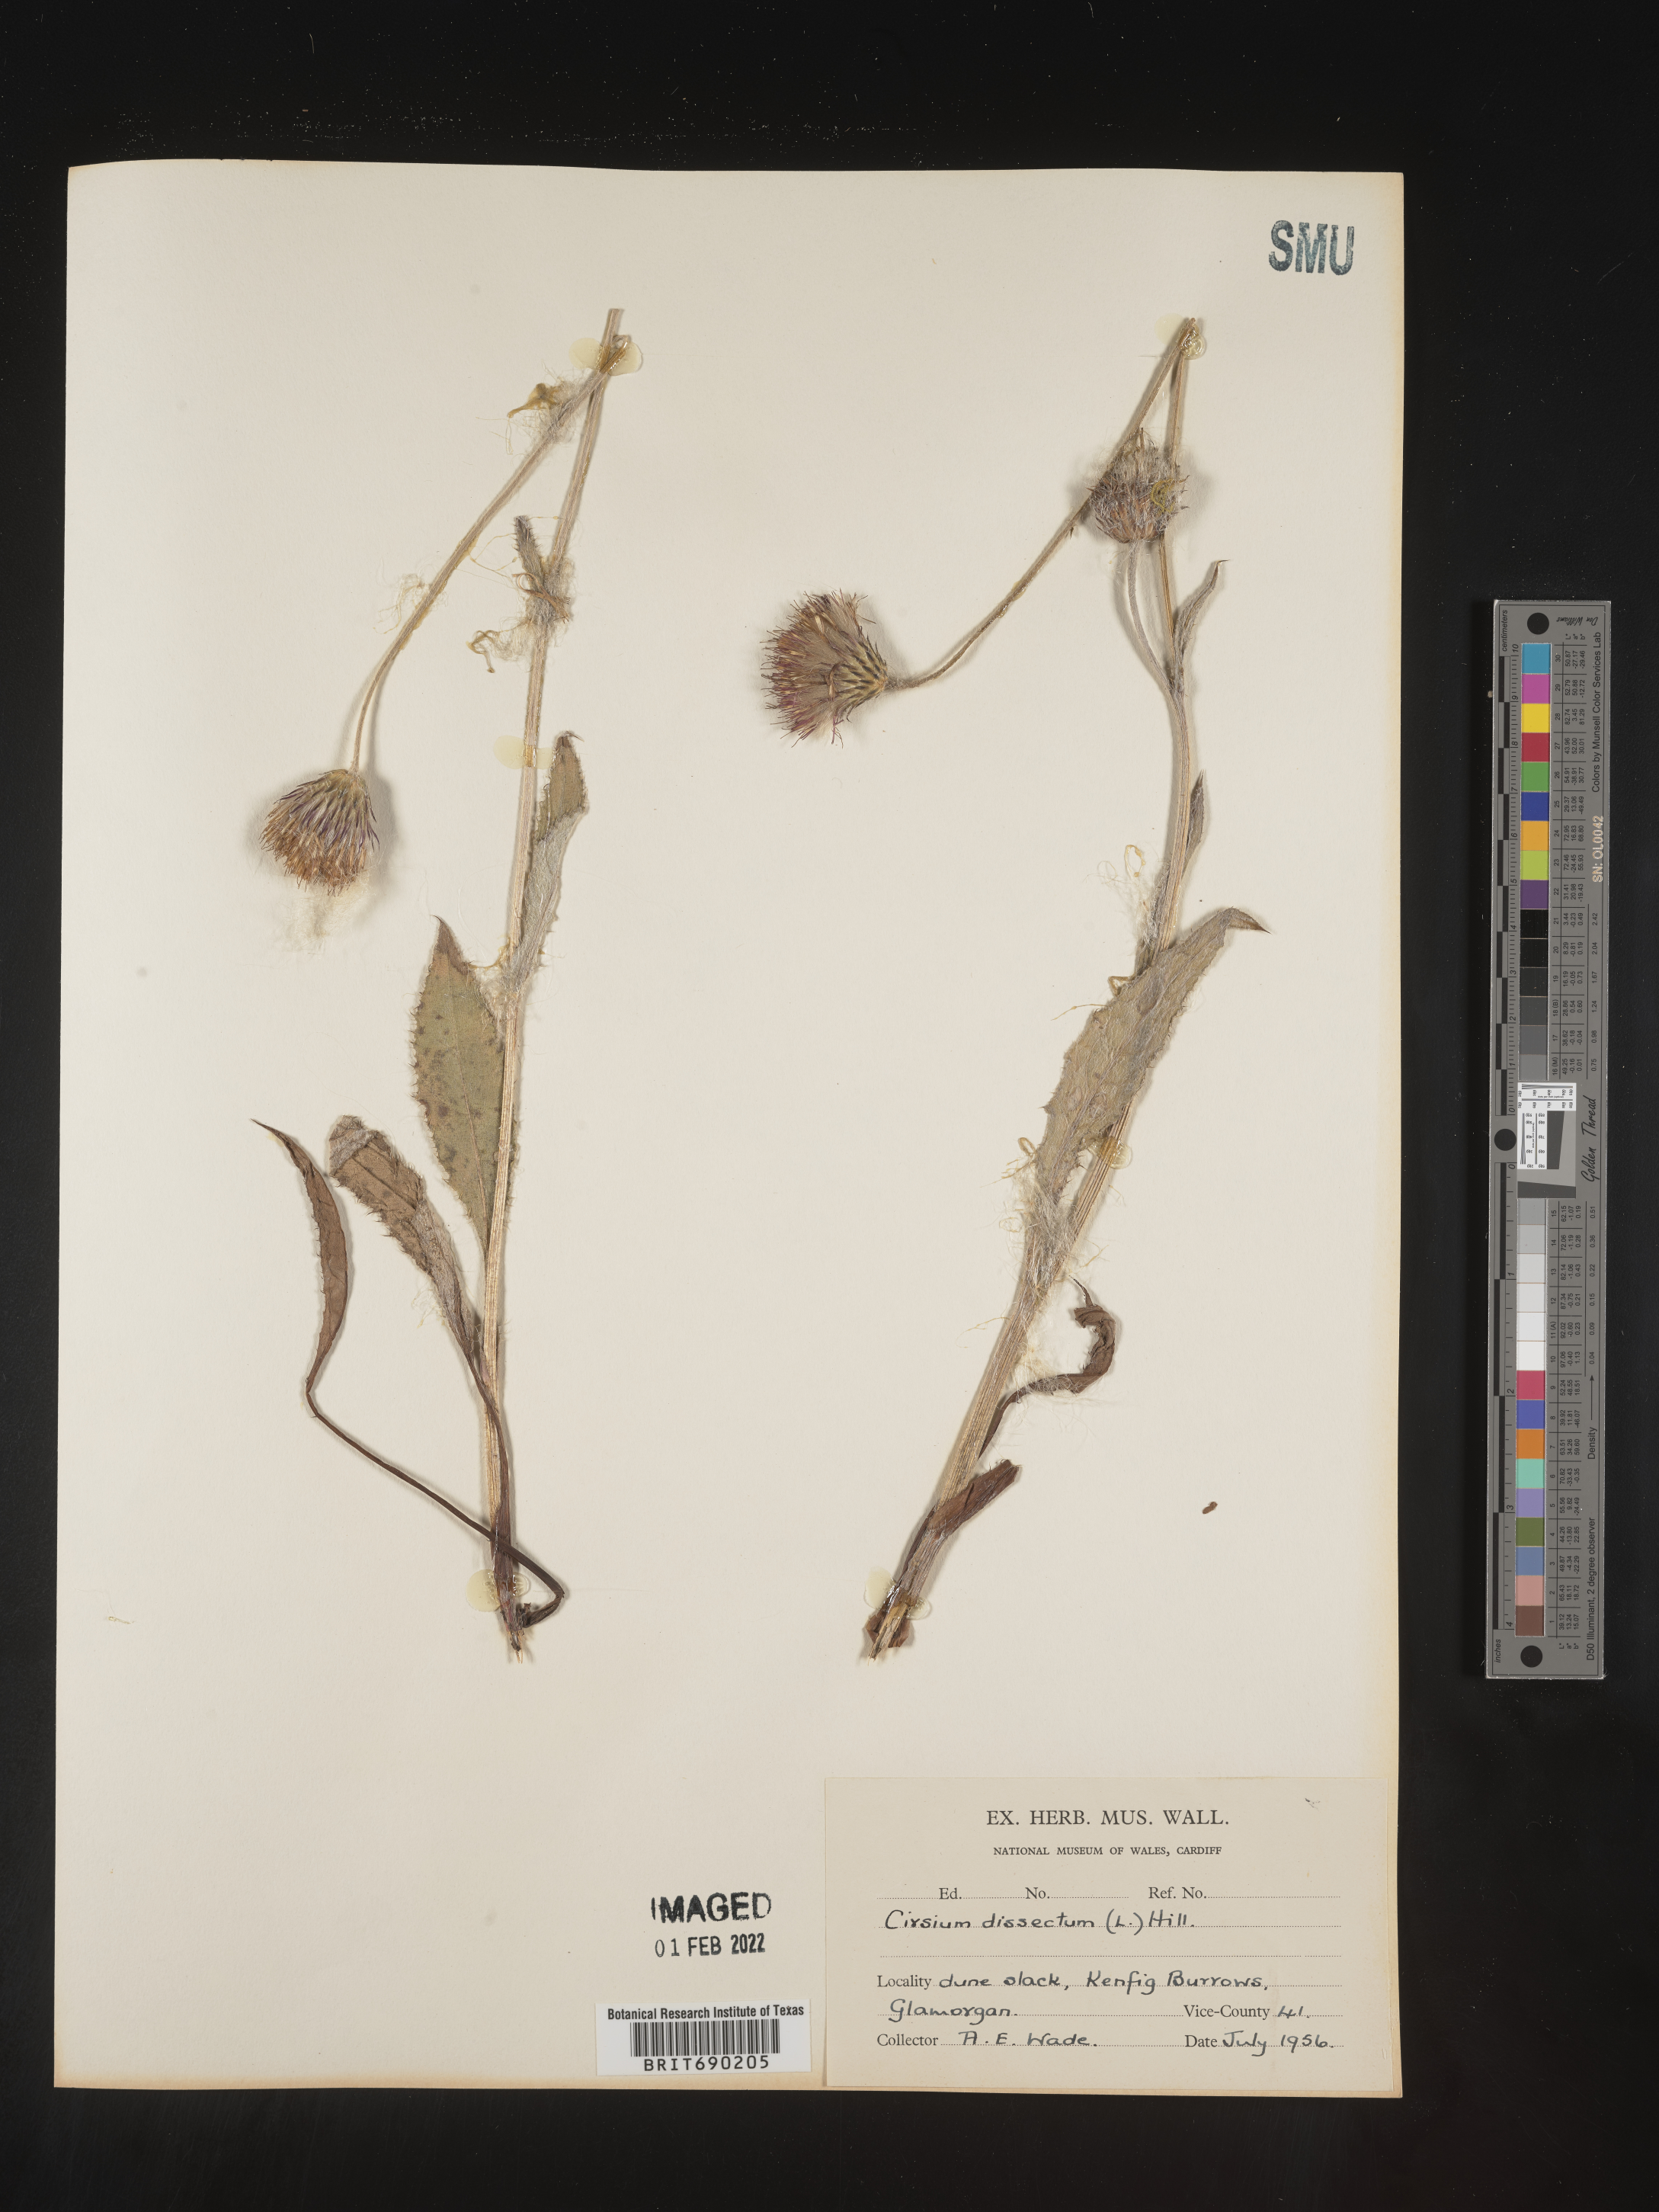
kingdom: Plantae
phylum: Tracheophyta
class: Magnoliopsida
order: Asterales
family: Asteraceae
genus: Cirsium
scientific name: Cirsium
